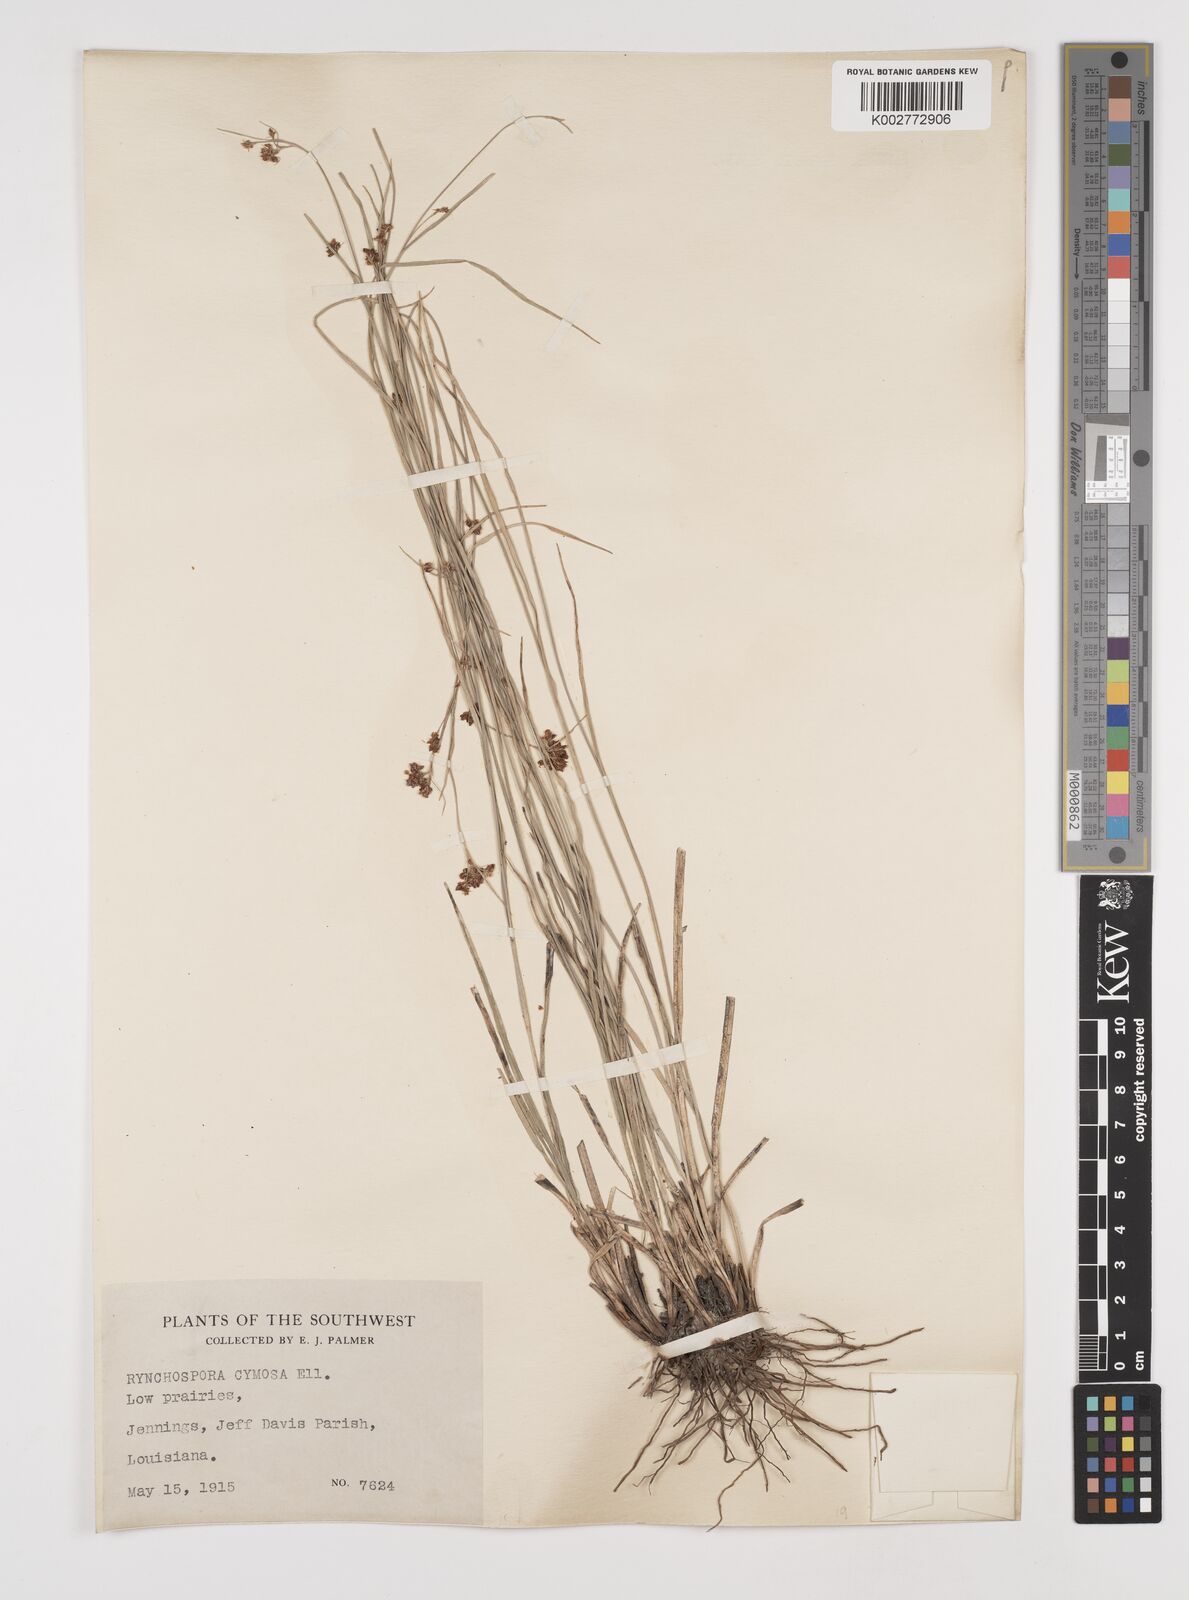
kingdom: Plantae
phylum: Tracheophyta
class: Liliopsida
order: Poales
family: Cyperaceae
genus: Scirpus
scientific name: Scirpus polyphyllus
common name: Leafy bulrush
